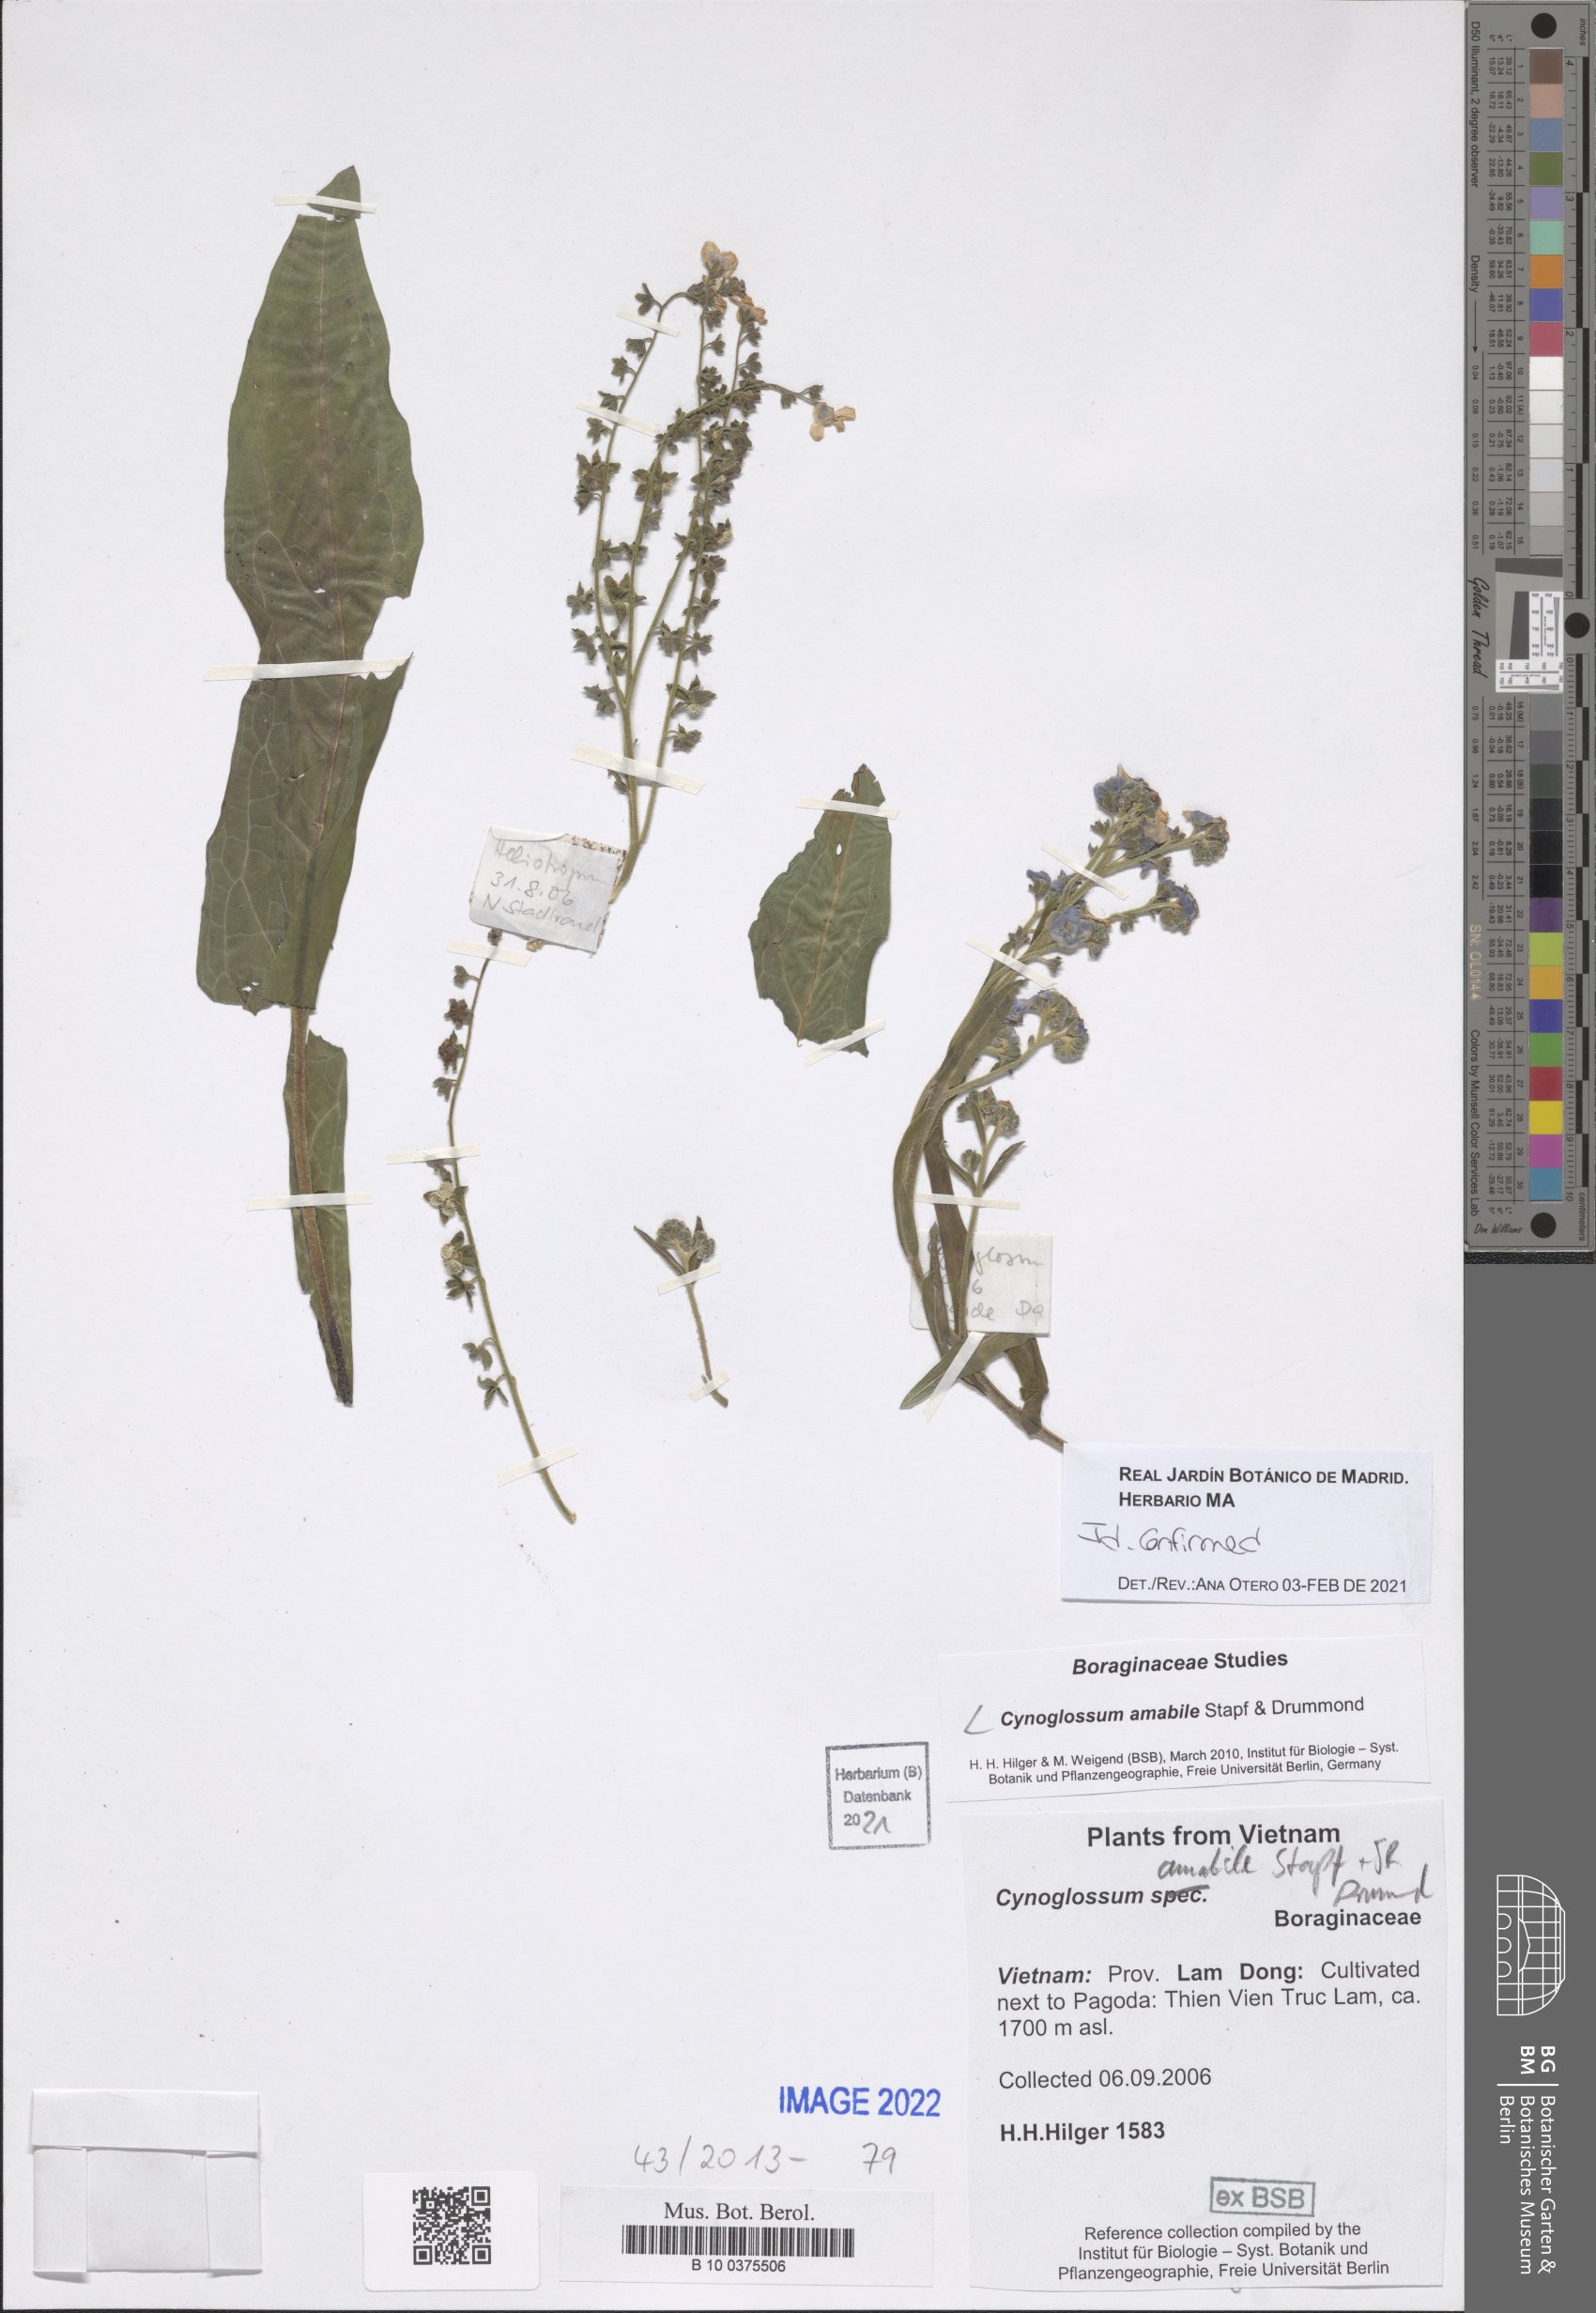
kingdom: Plantae
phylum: Tracheophyta
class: Magnoliopsida
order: Boraginales
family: Boraginaceae
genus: Cynoglossum
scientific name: Cynoglossum amabile
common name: Chinese hound's tongue
